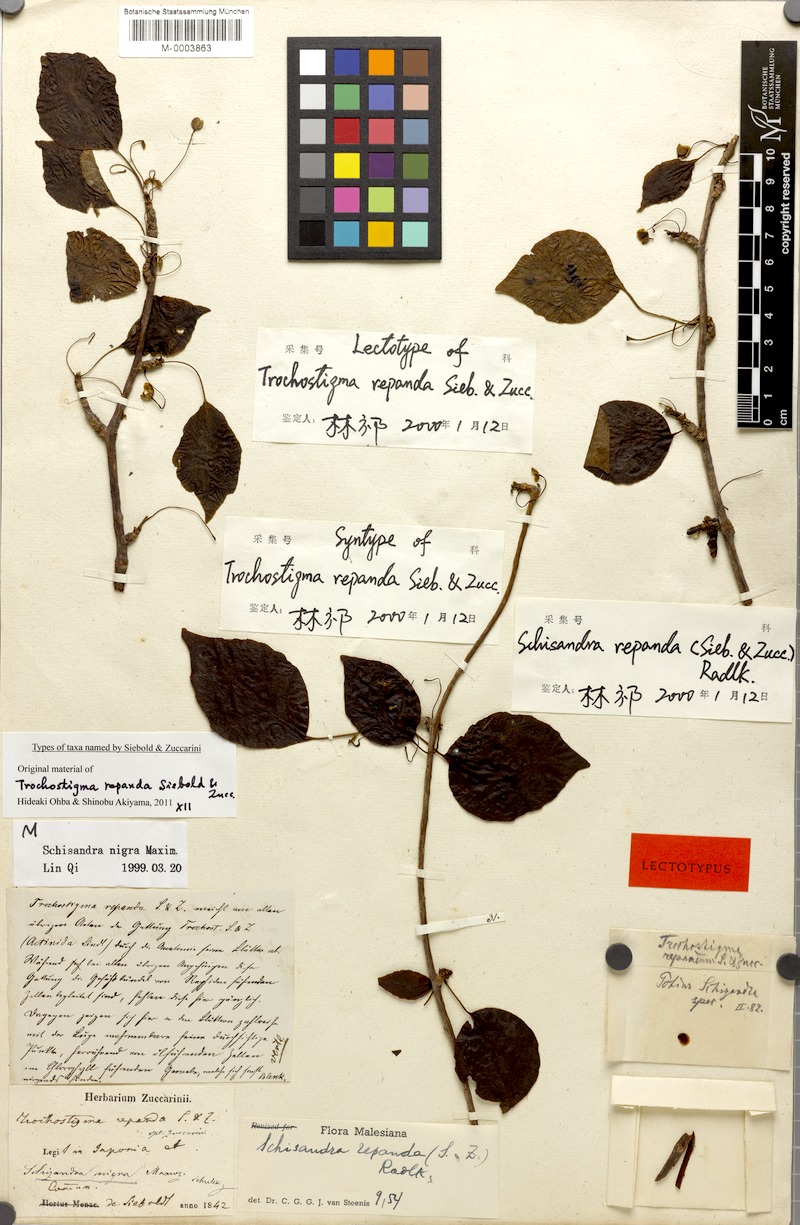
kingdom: Plantae
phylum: Tracheophyta
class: Magnoliopsida
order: Austrobaileyales
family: Schisandraceae
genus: Schisandra
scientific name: Schisandra repanda
